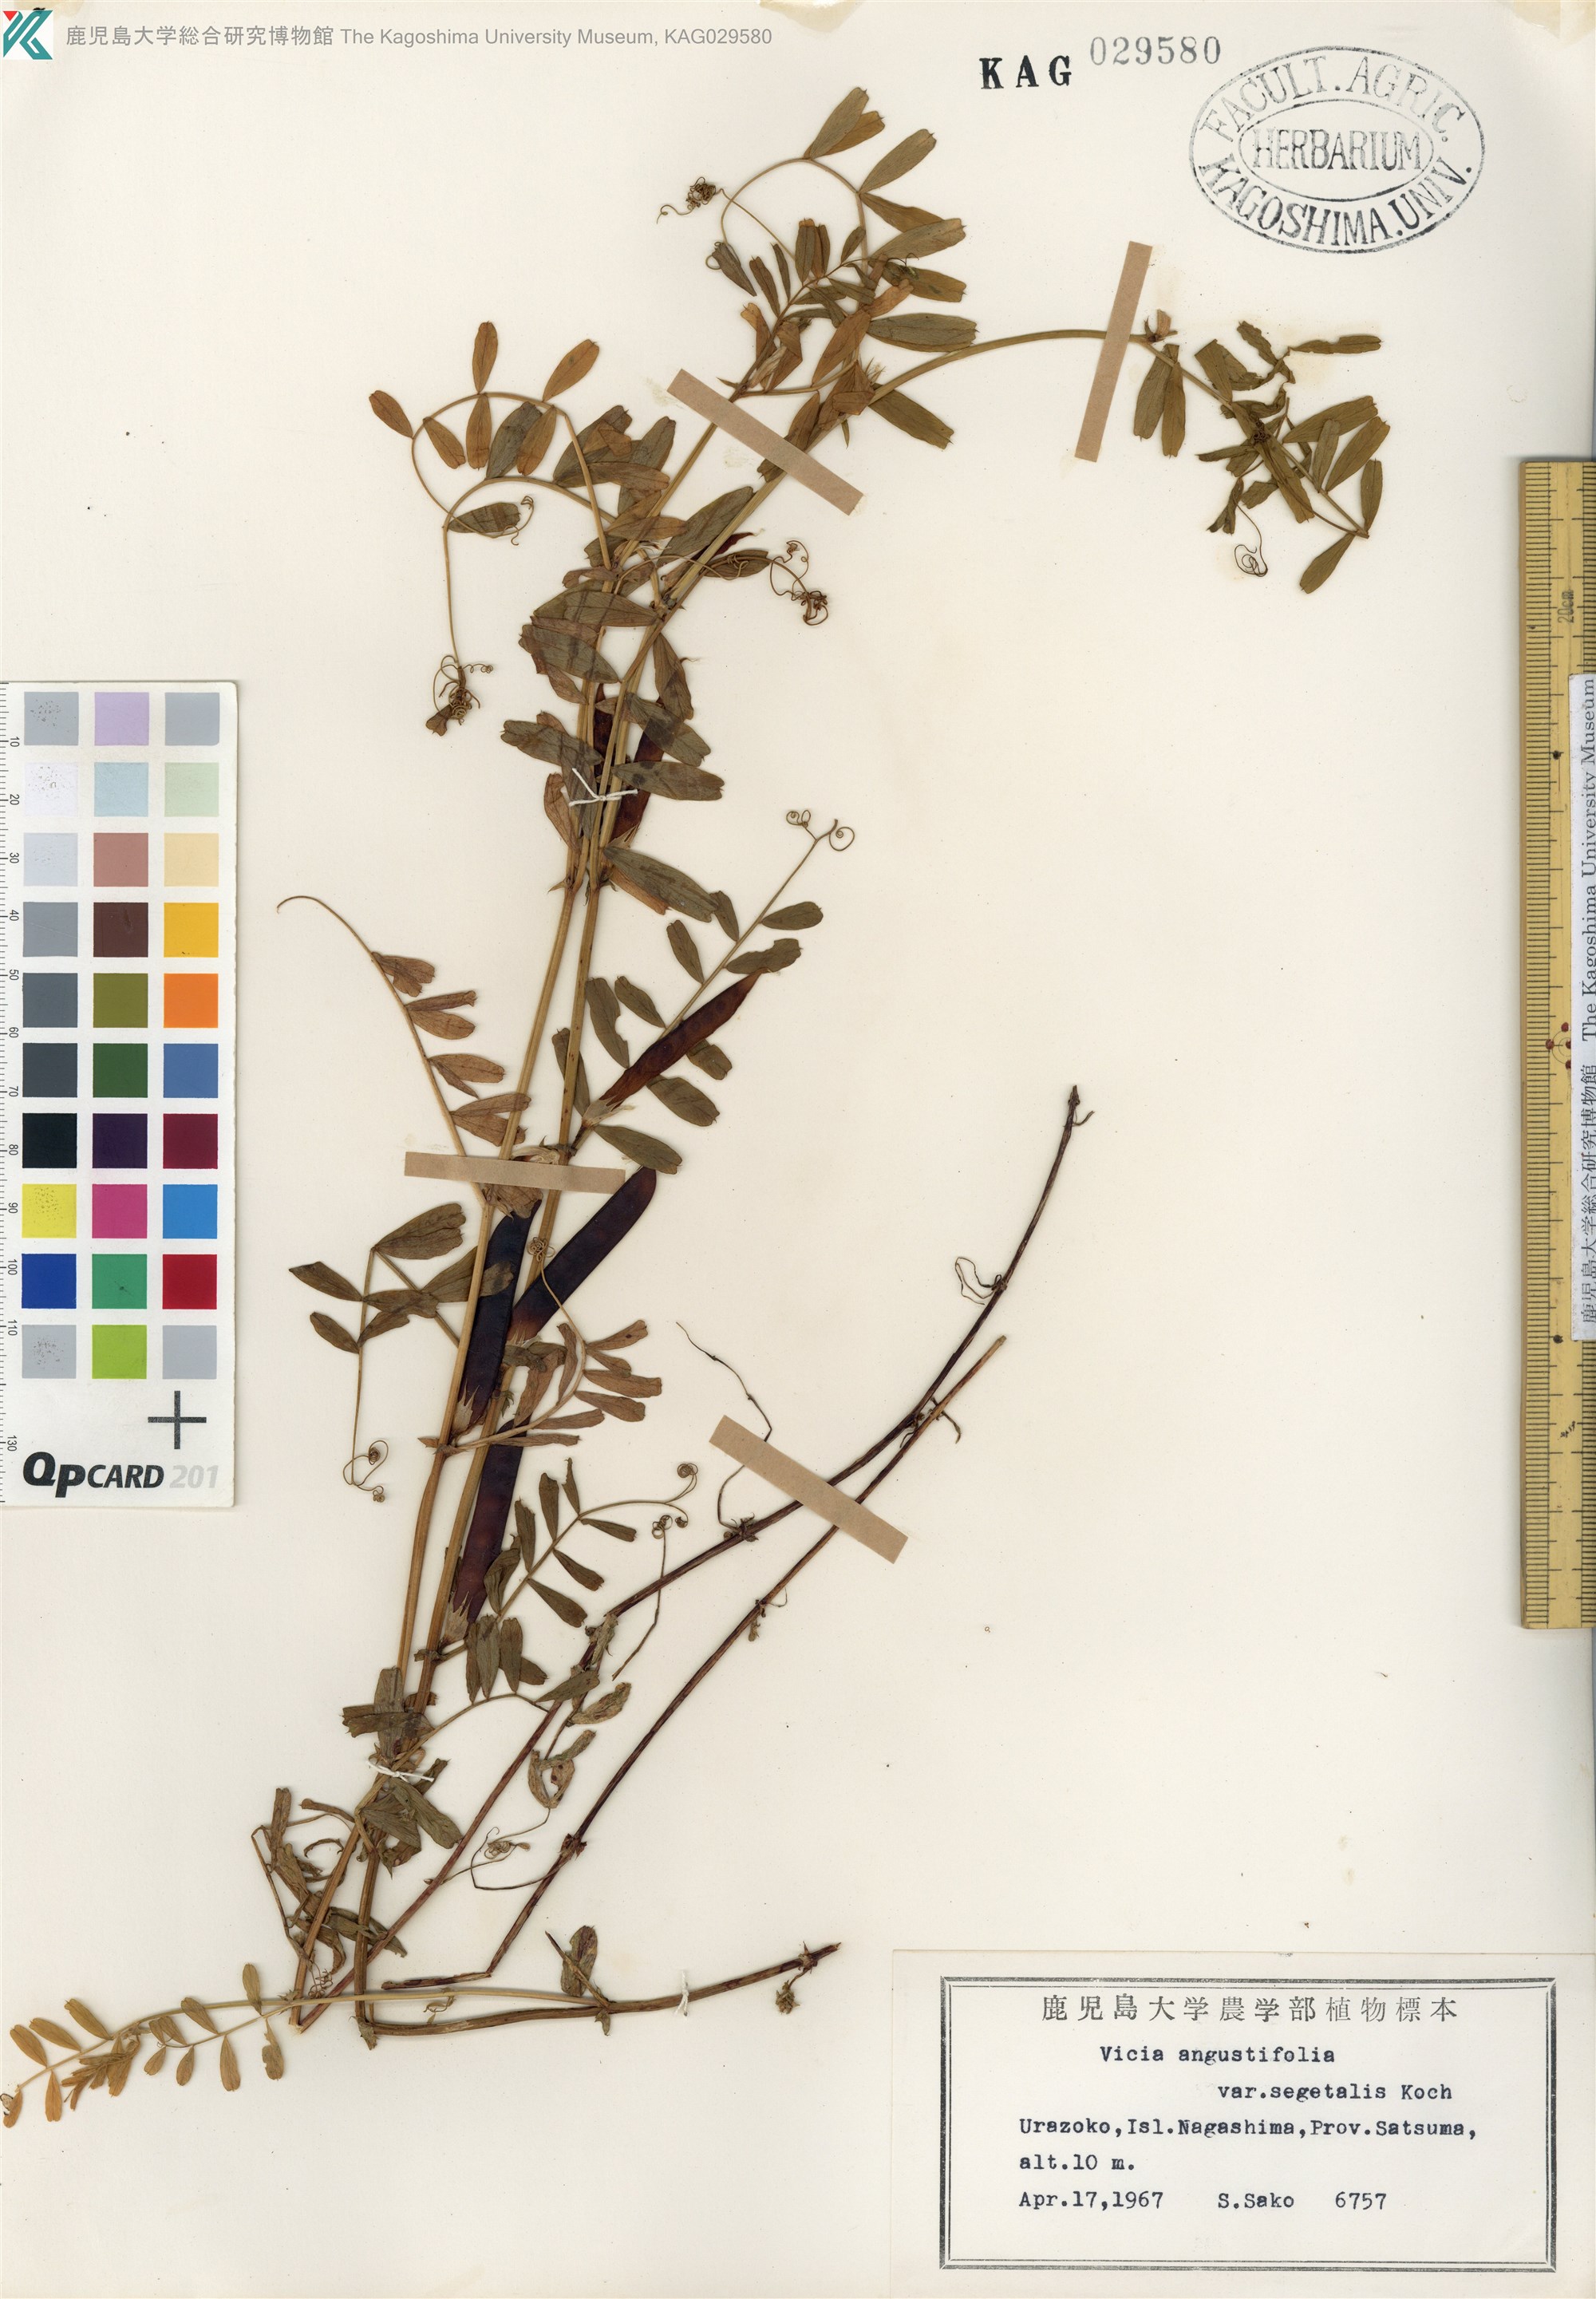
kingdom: Plantae
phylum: Tracheophyta
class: Magnoliopsida
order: Fabales
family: Fabaceae
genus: Vicia
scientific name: Vicia sativa
